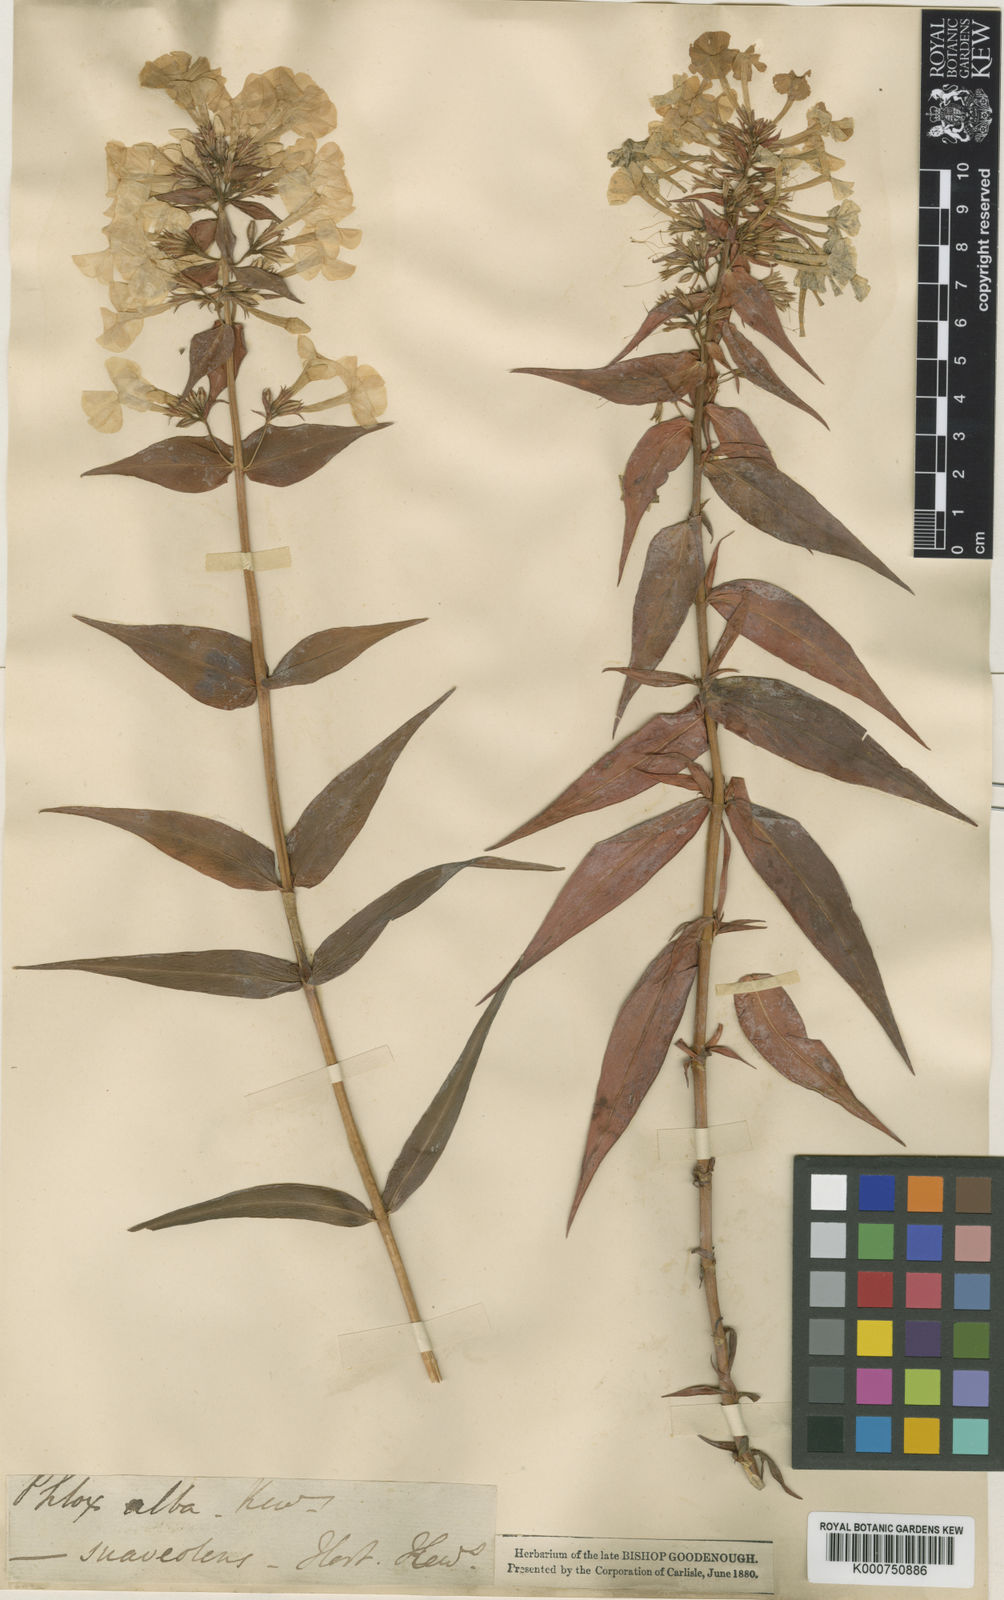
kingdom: Plantae
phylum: Tracheophyta
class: Magnoliopsida
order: Ericales
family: Polemoniaceae
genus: Phlox
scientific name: Phlox maculata
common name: Meadow phlox
